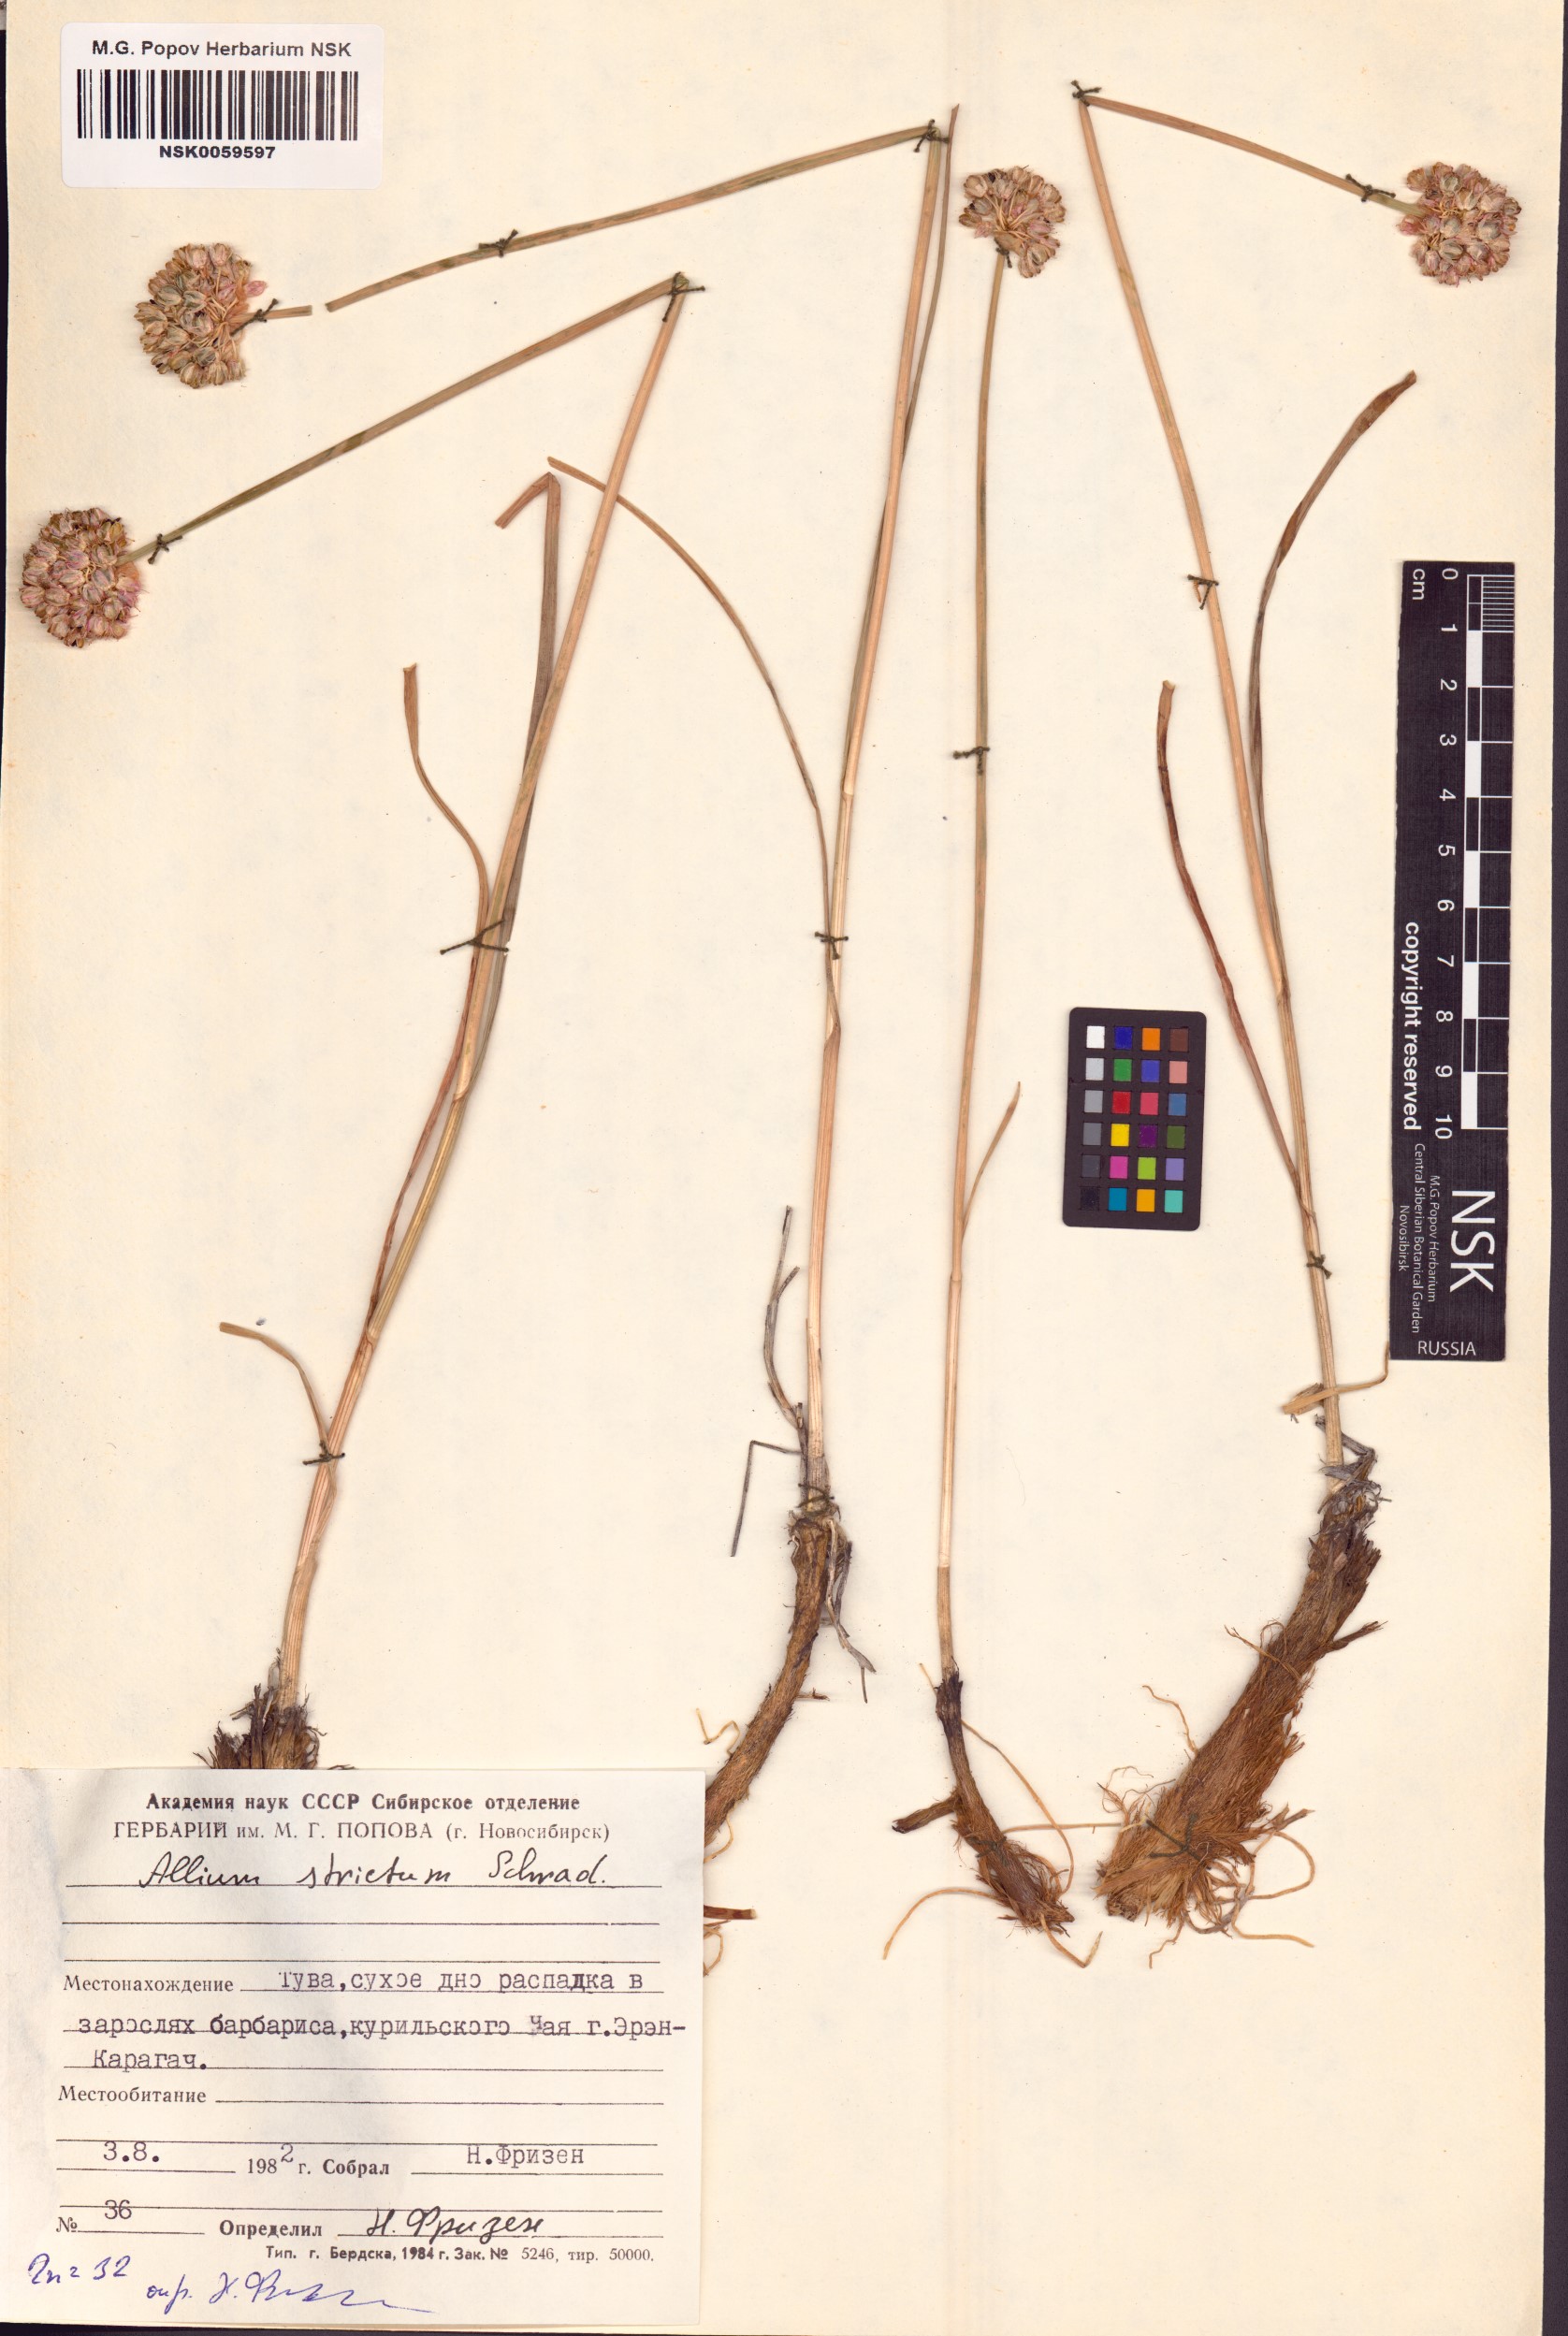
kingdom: Plantae
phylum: Tracheophyta
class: Liliopsida
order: Asparagales
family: Amaryllidaceae
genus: Allium
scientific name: Allium strictum
